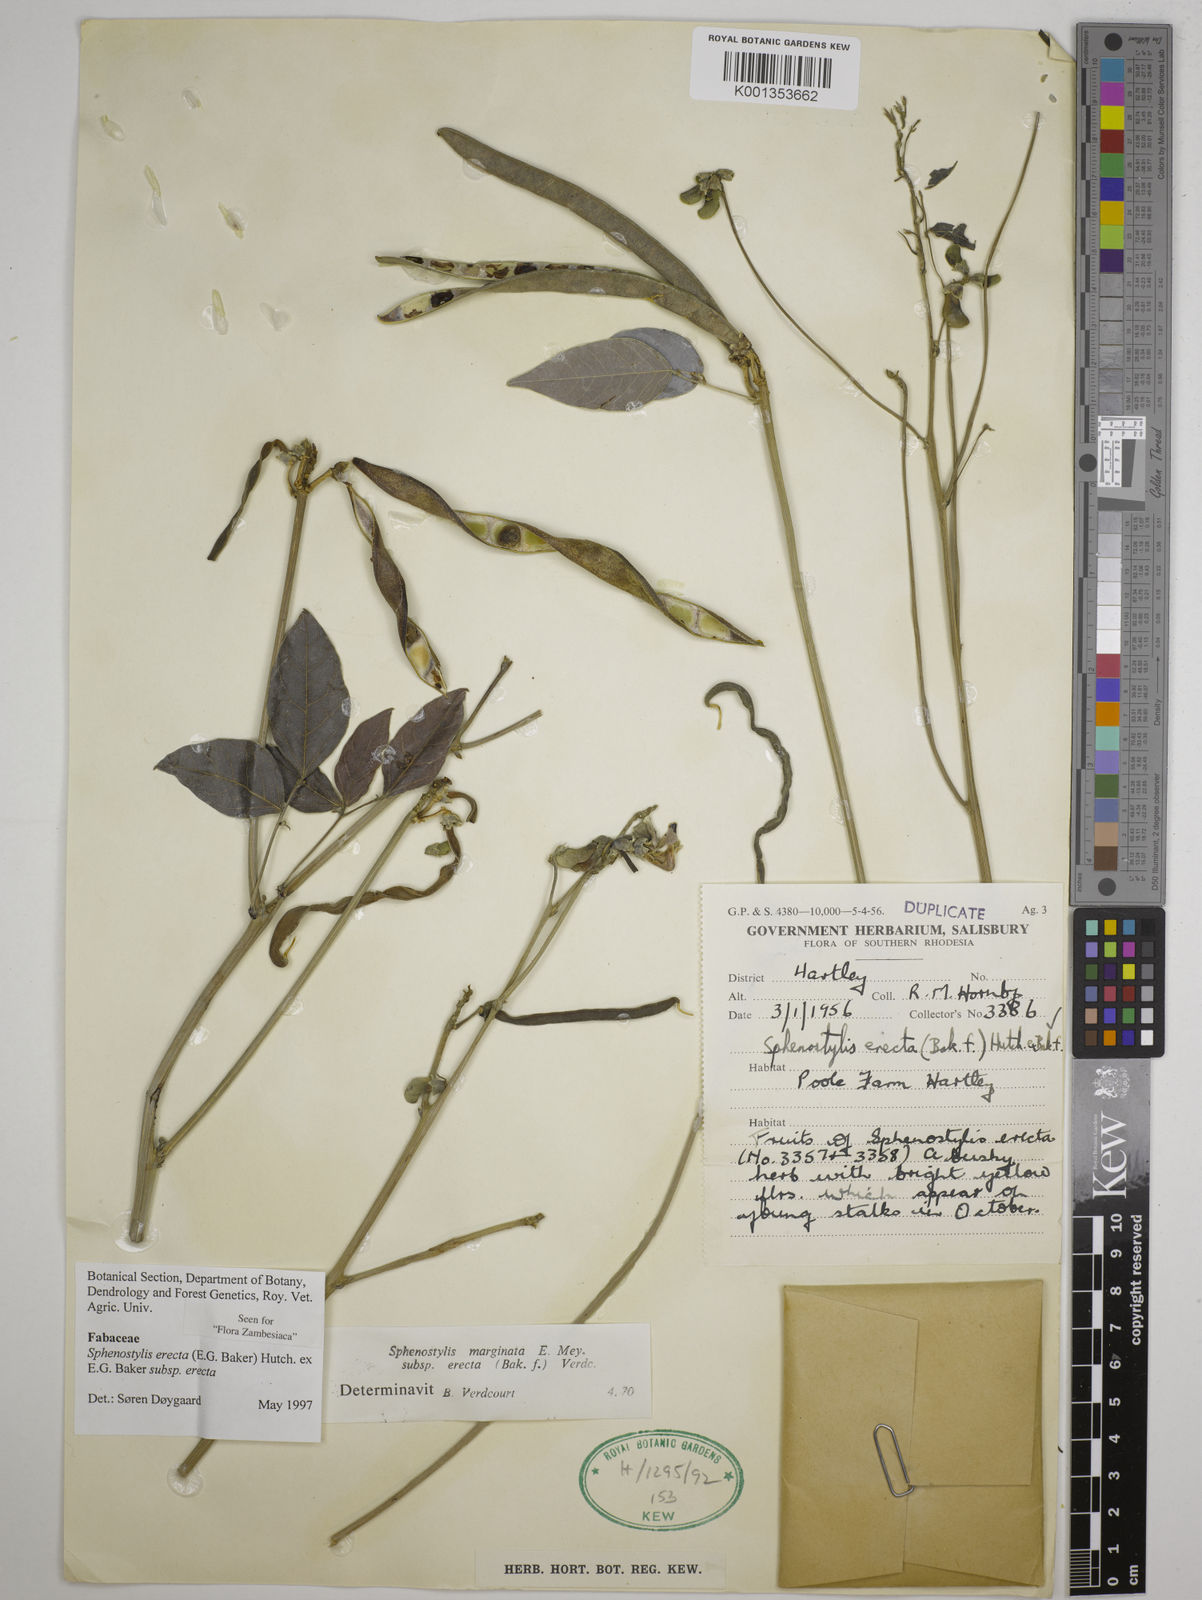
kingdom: Plantae
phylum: Tracheophyta
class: Magnoliopsida
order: Fabales
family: Fabaceae
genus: Sphenostylis
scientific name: Sphenostylis erecta
